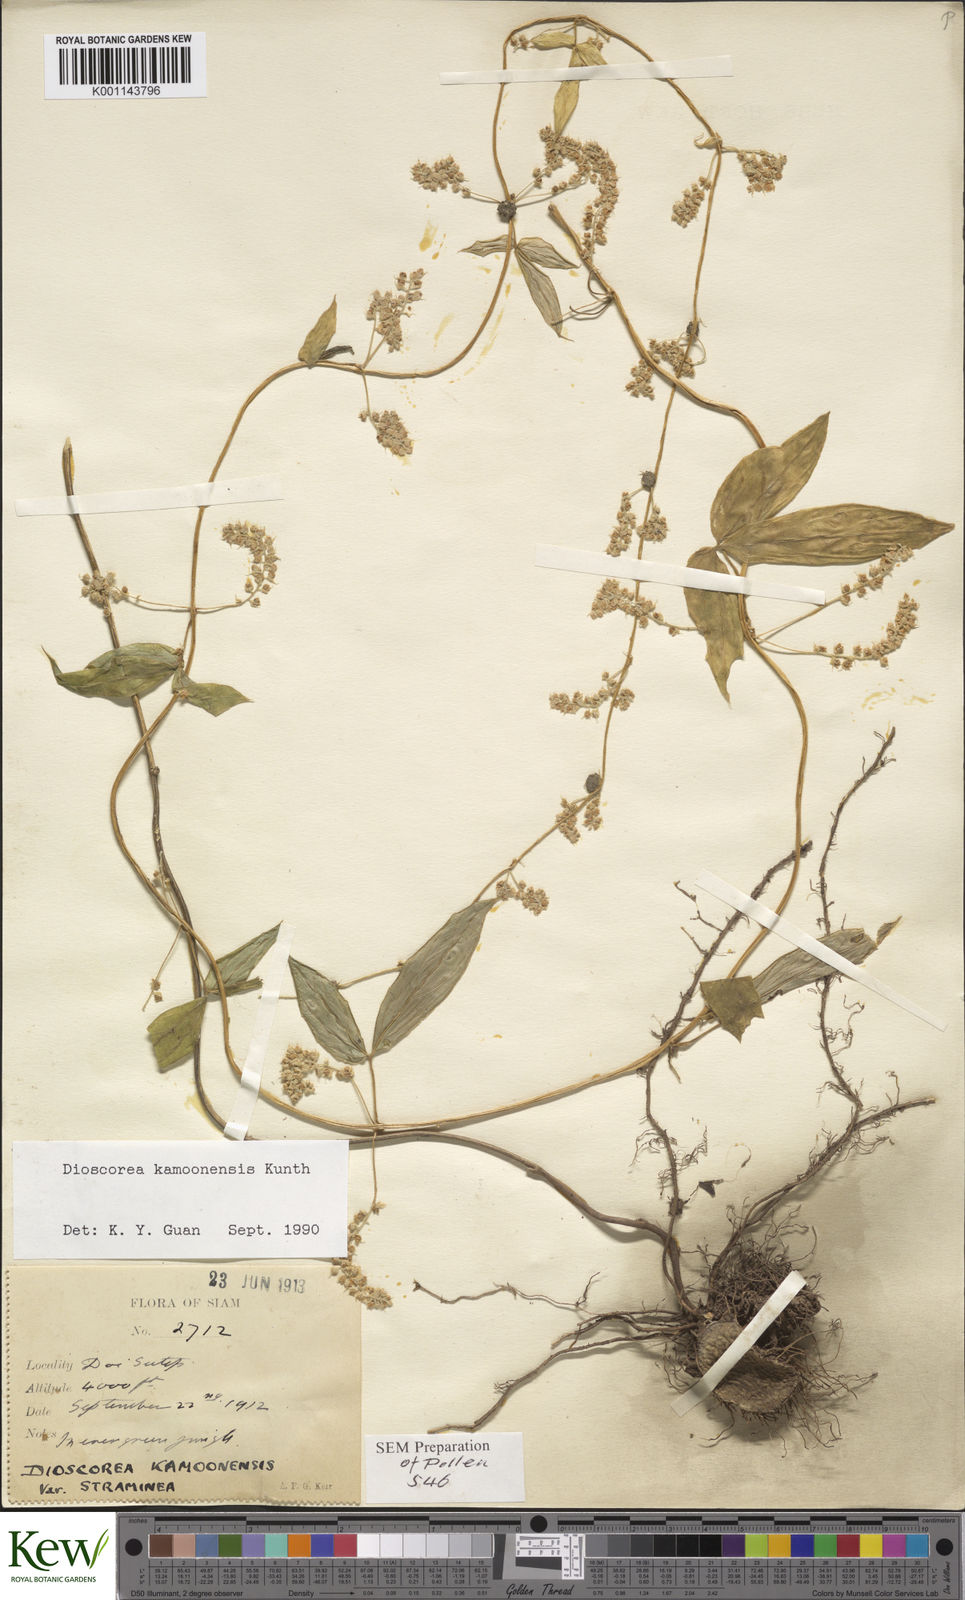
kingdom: Plantae
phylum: Tracheophyta
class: Liliopsida
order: Dioscoreales
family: Dioscoreaceae
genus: Dioscorea
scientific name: Dioscorea kamoonensis
